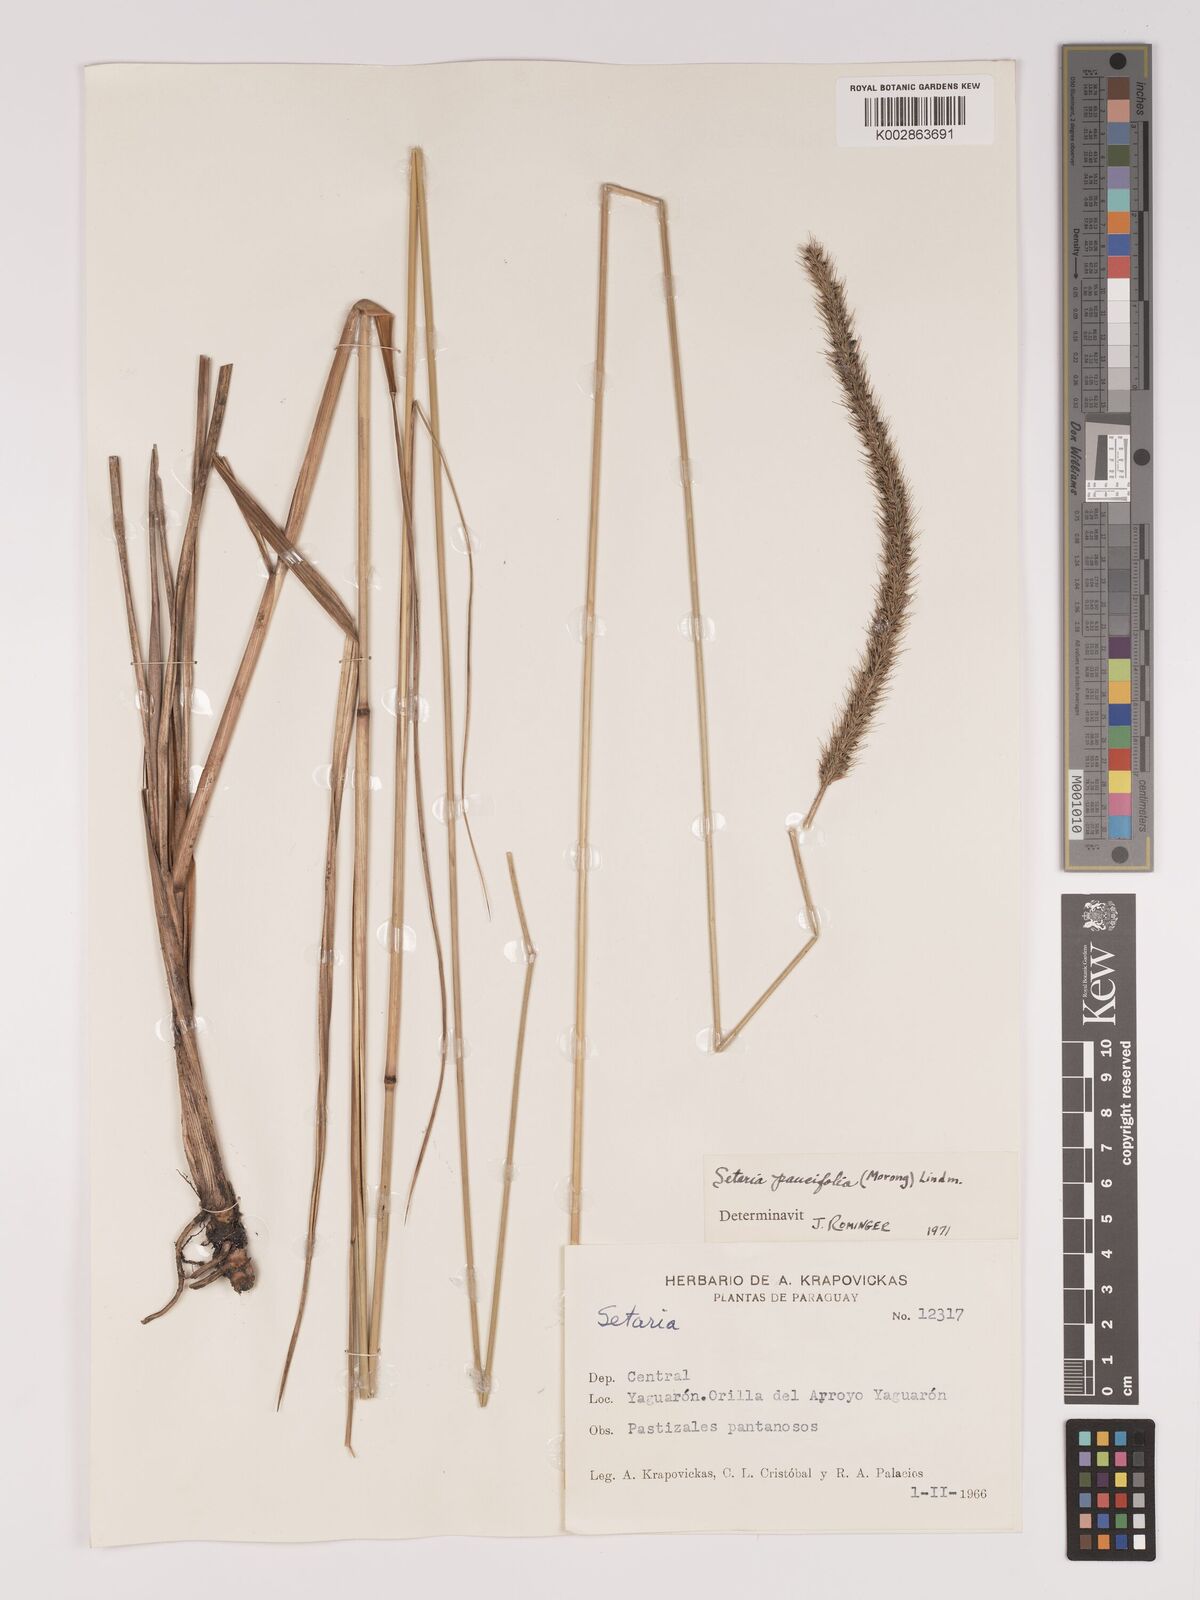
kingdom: Plantae
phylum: Tracheophyta
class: Liliopsida
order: Poales
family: Poaceae
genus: Setaria
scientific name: Setaria paucifolia
